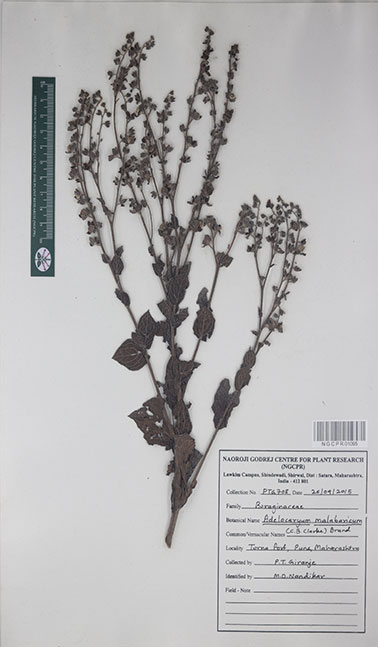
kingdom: Plantae
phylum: Tracheophyta
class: Magnoliopsida
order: Boraginales
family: Boraginaceae
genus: Paracaryum
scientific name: Paracaryum malabaricum
